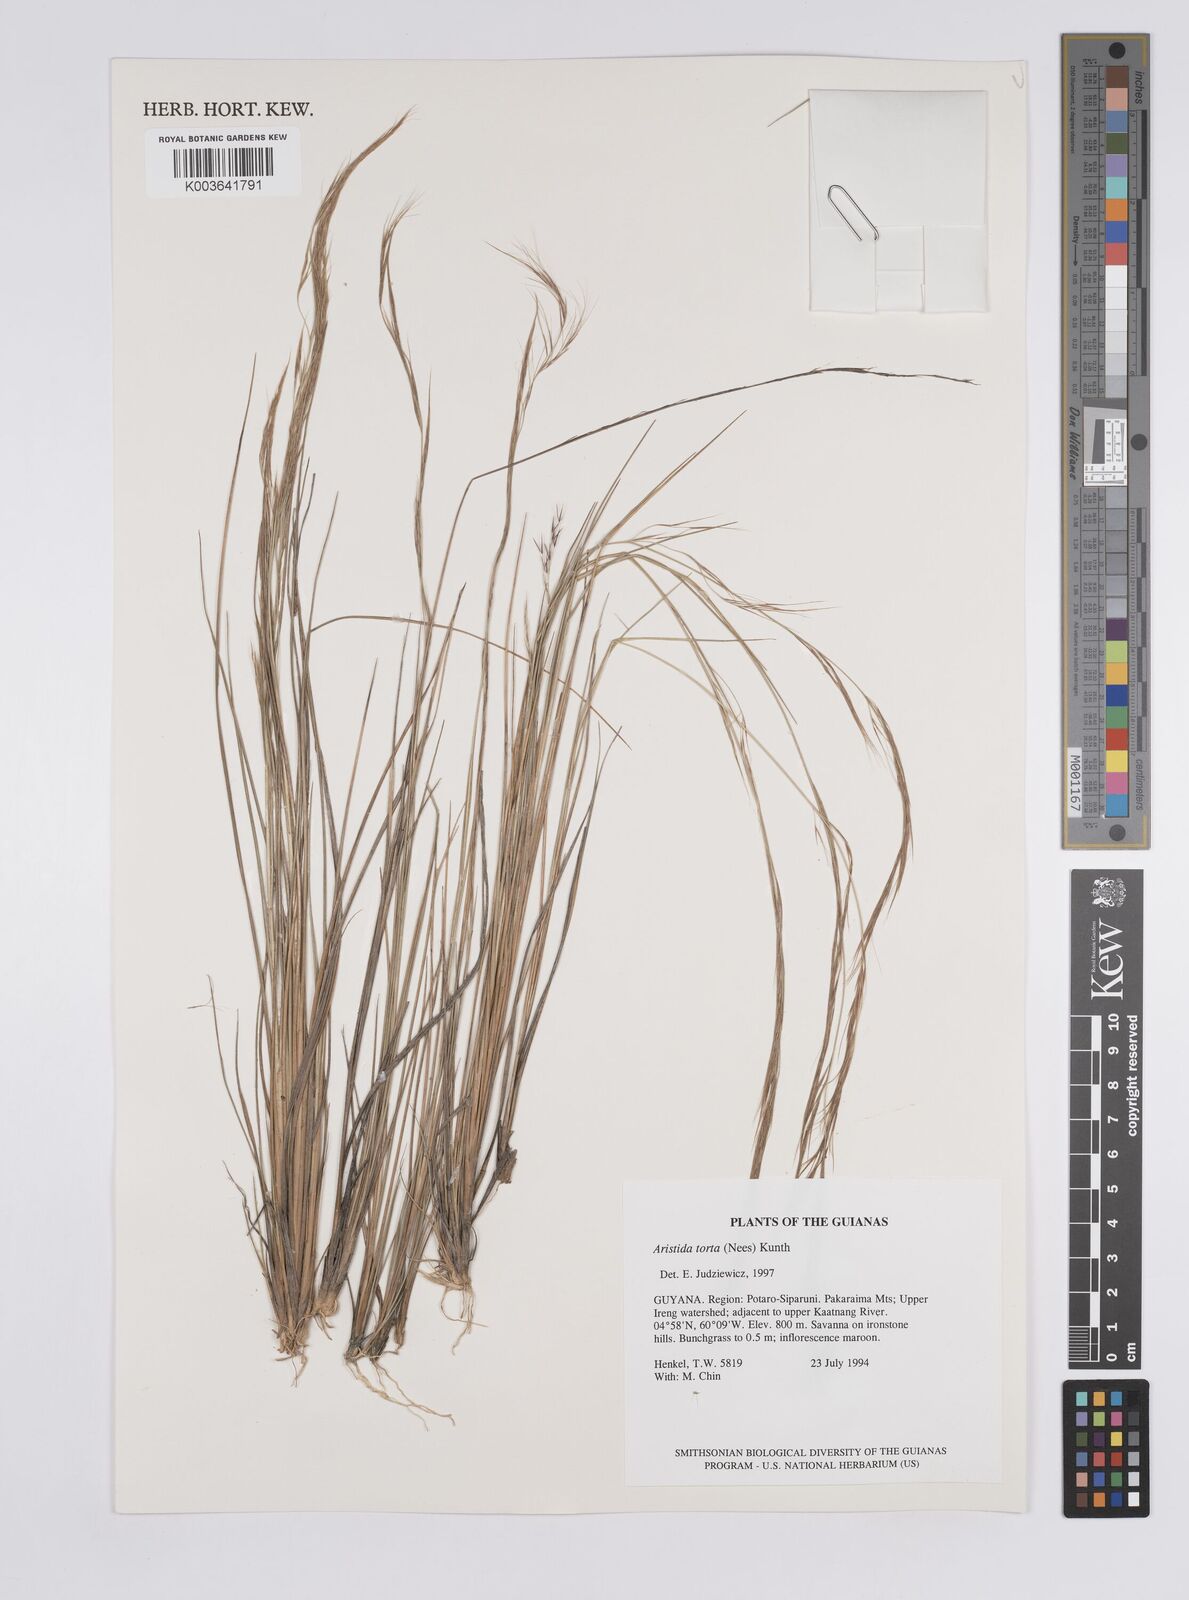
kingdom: Plantae
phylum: Tracheophyta
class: Liliopsida
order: Poales
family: Poaceae
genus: Aristida
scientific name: Aristida torta
